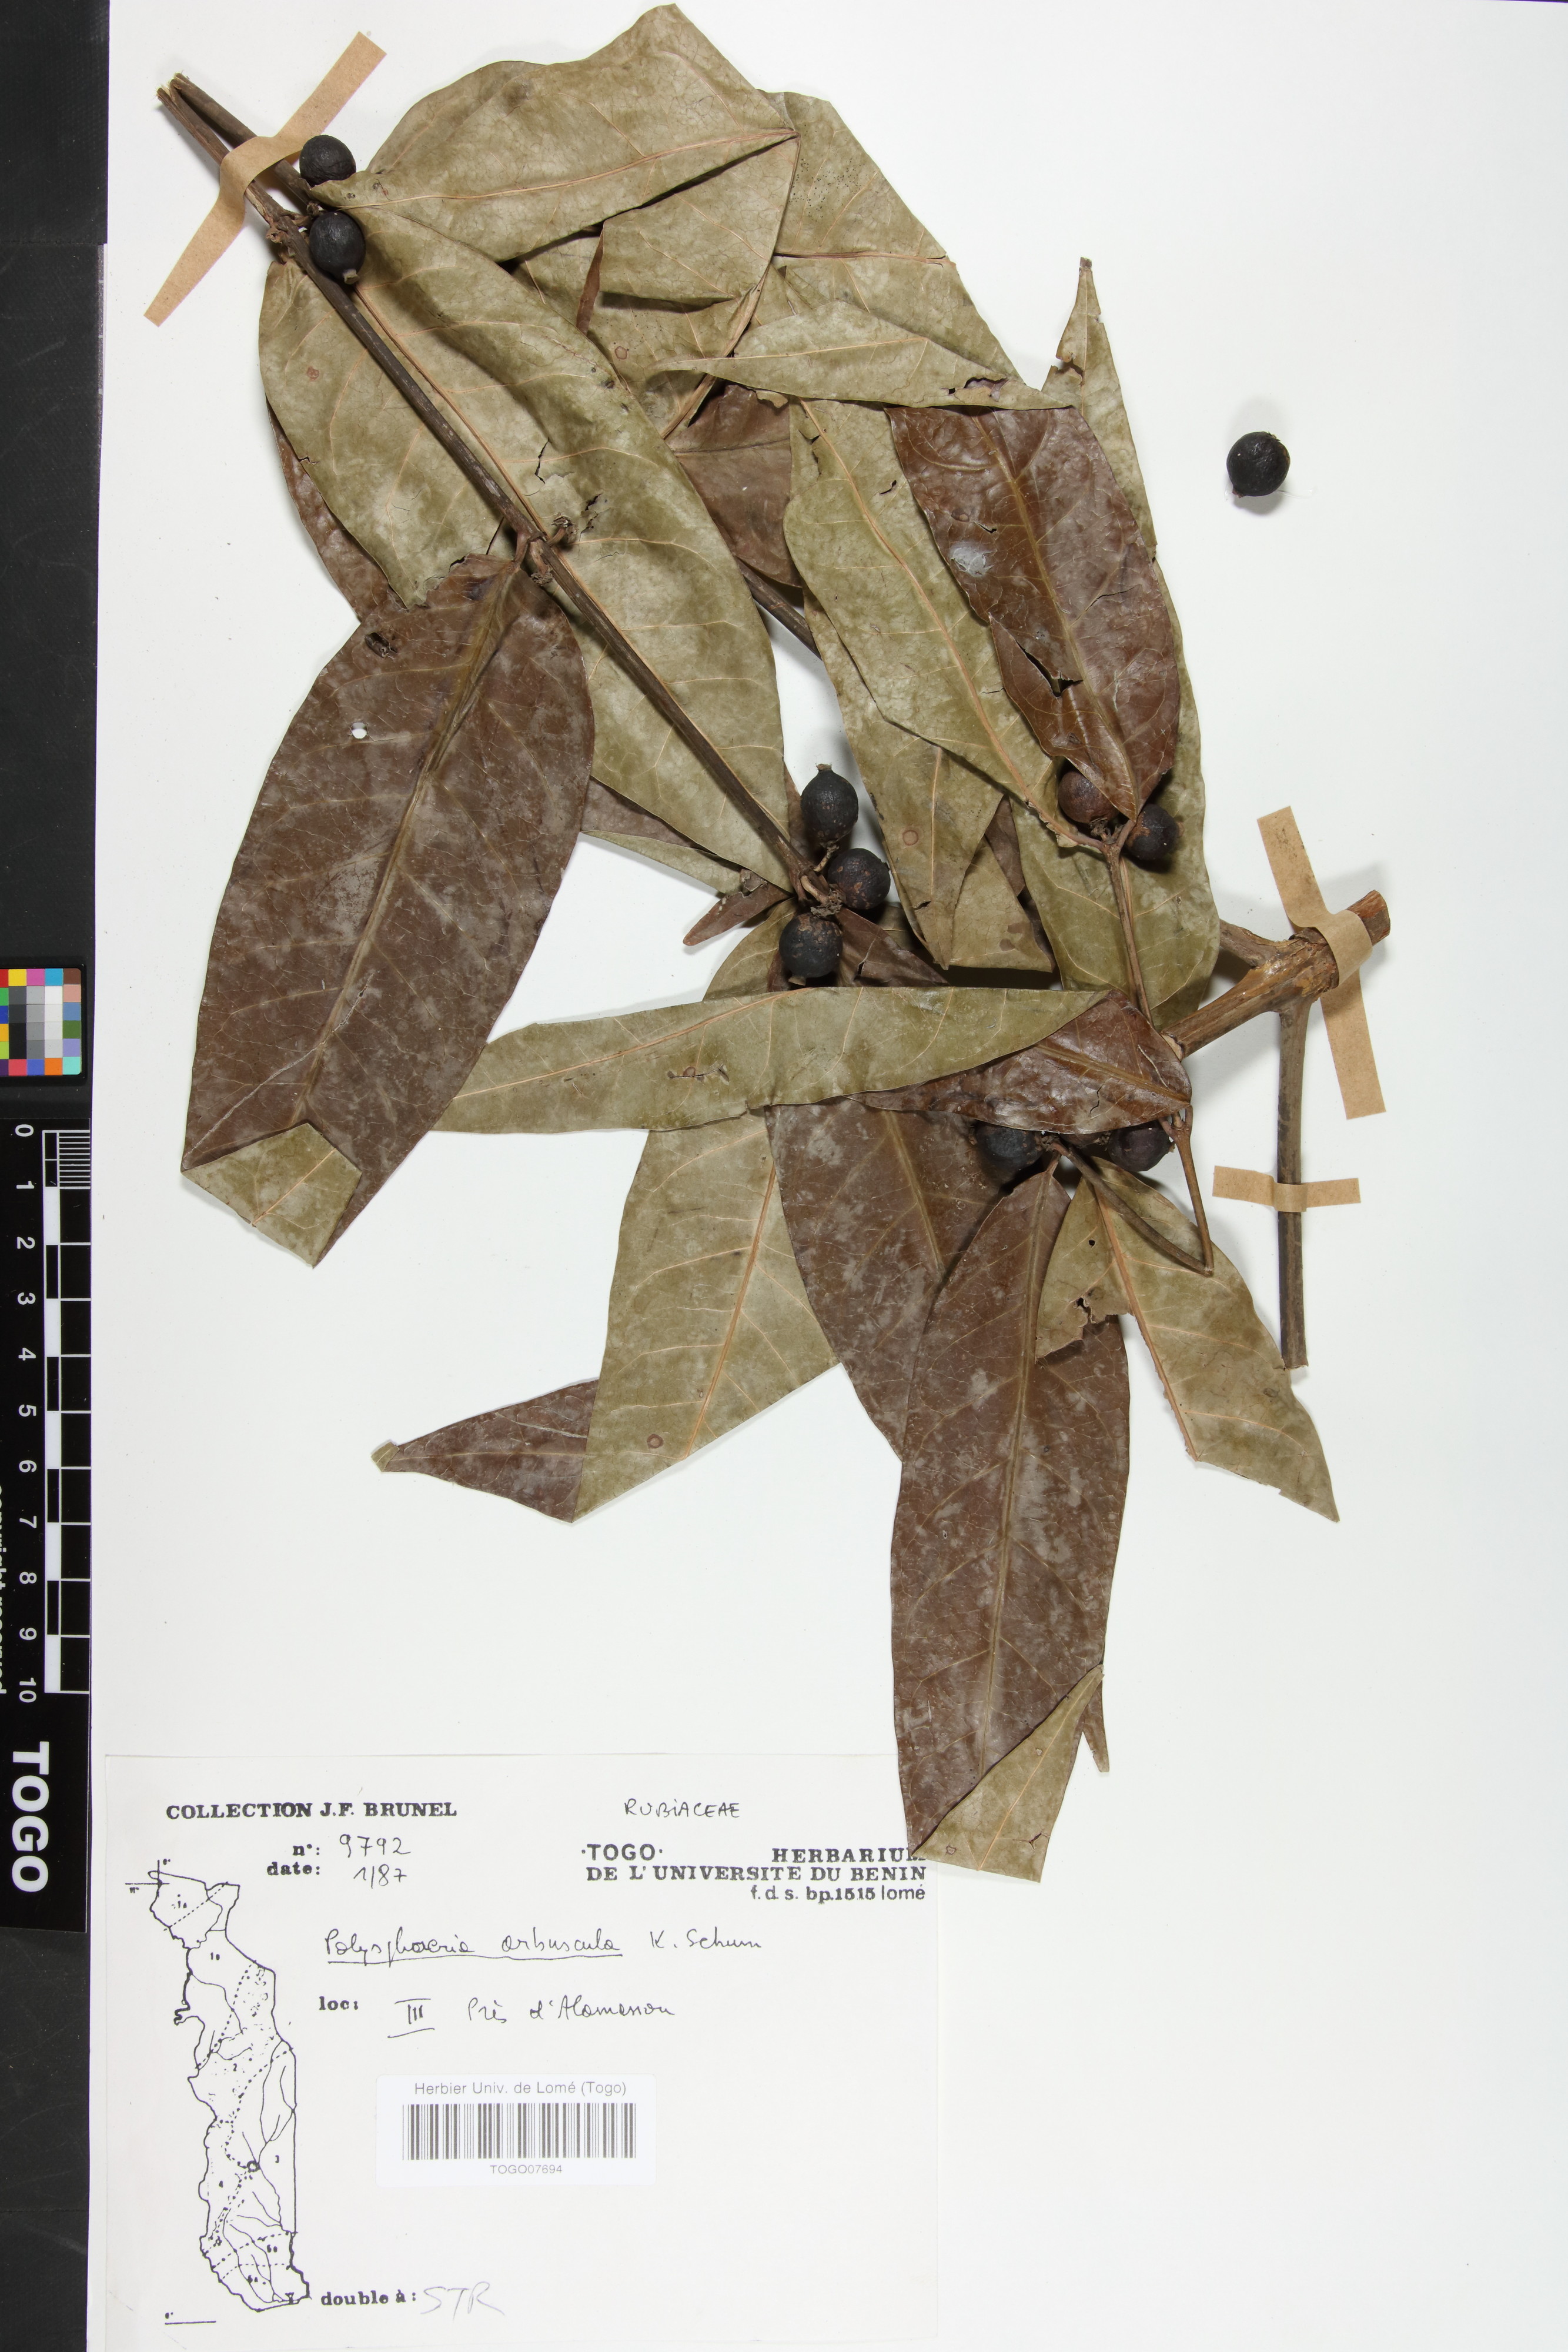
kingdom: Plantae
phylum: Tracheophyta
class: Magnoliopsida
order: Gentianales
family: Rubiaceae
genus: Polysphaeria
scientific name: Polysphaeria arbuscula
